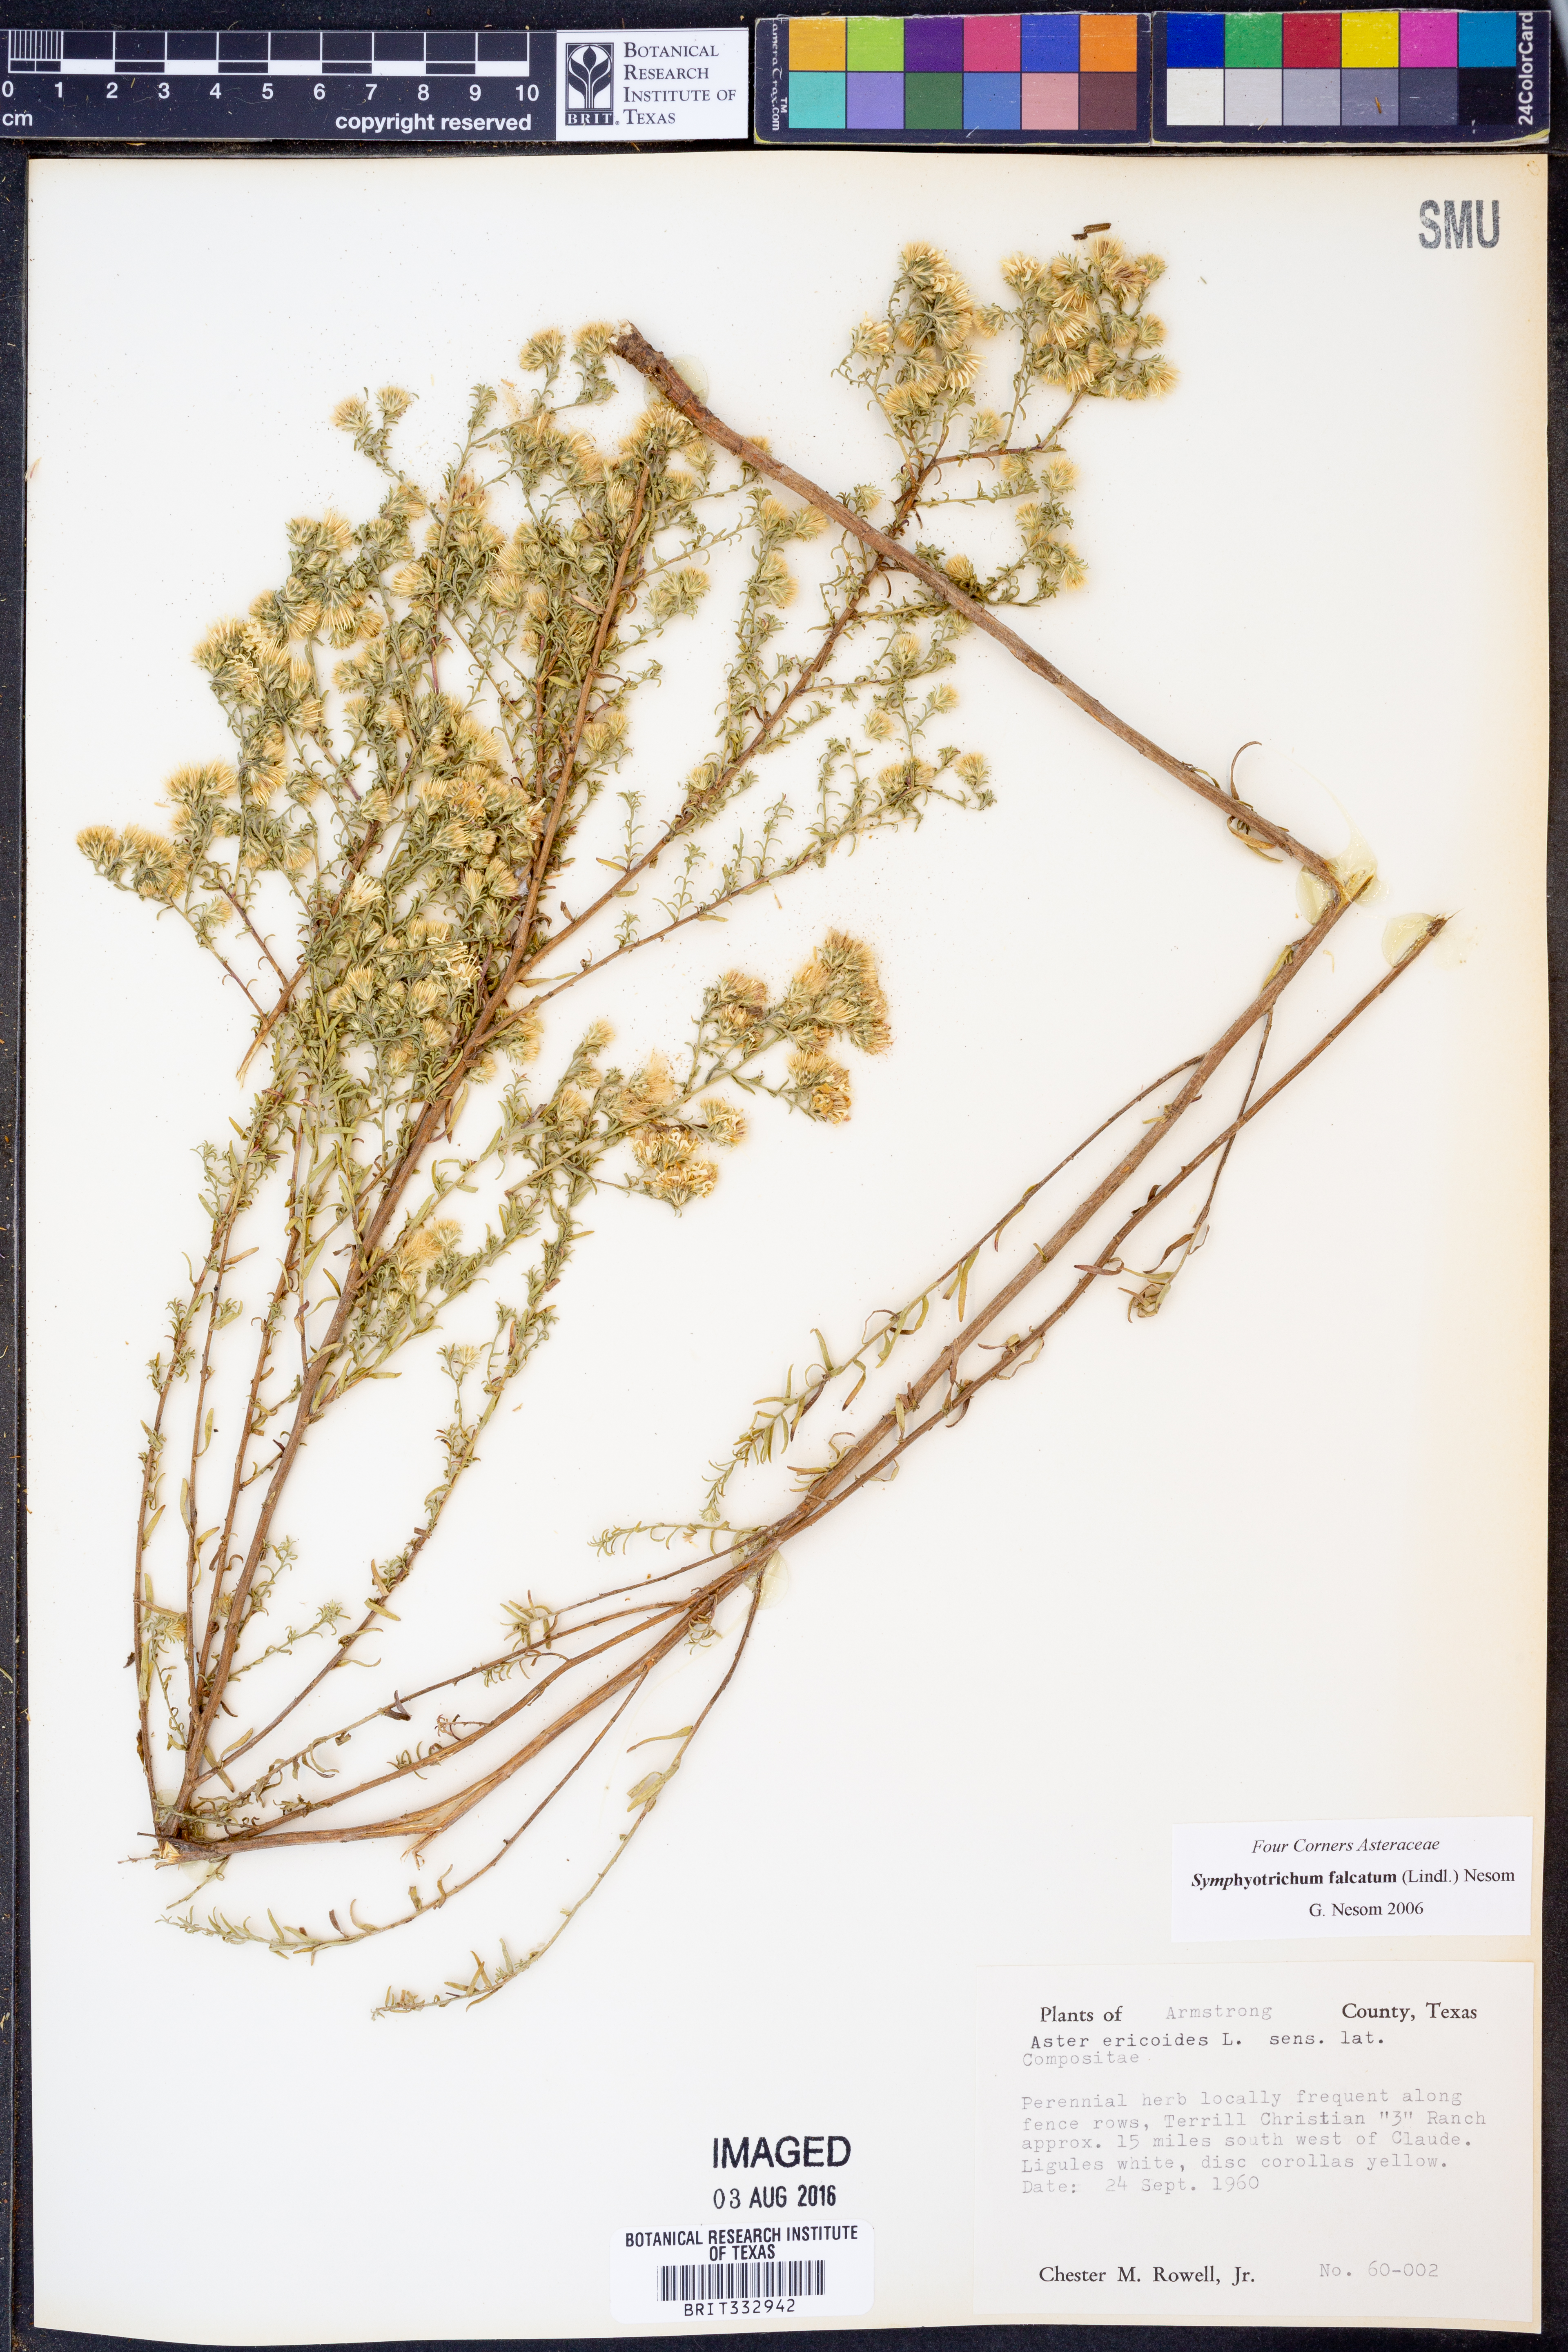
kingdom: Plantae
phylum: Tracheophyta
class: Magnoliopsida
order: Asterales
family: Asteraceae
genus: Symphyotrichum
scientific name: Symphyotrichum falcatum
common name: Creeping white prairie aster
